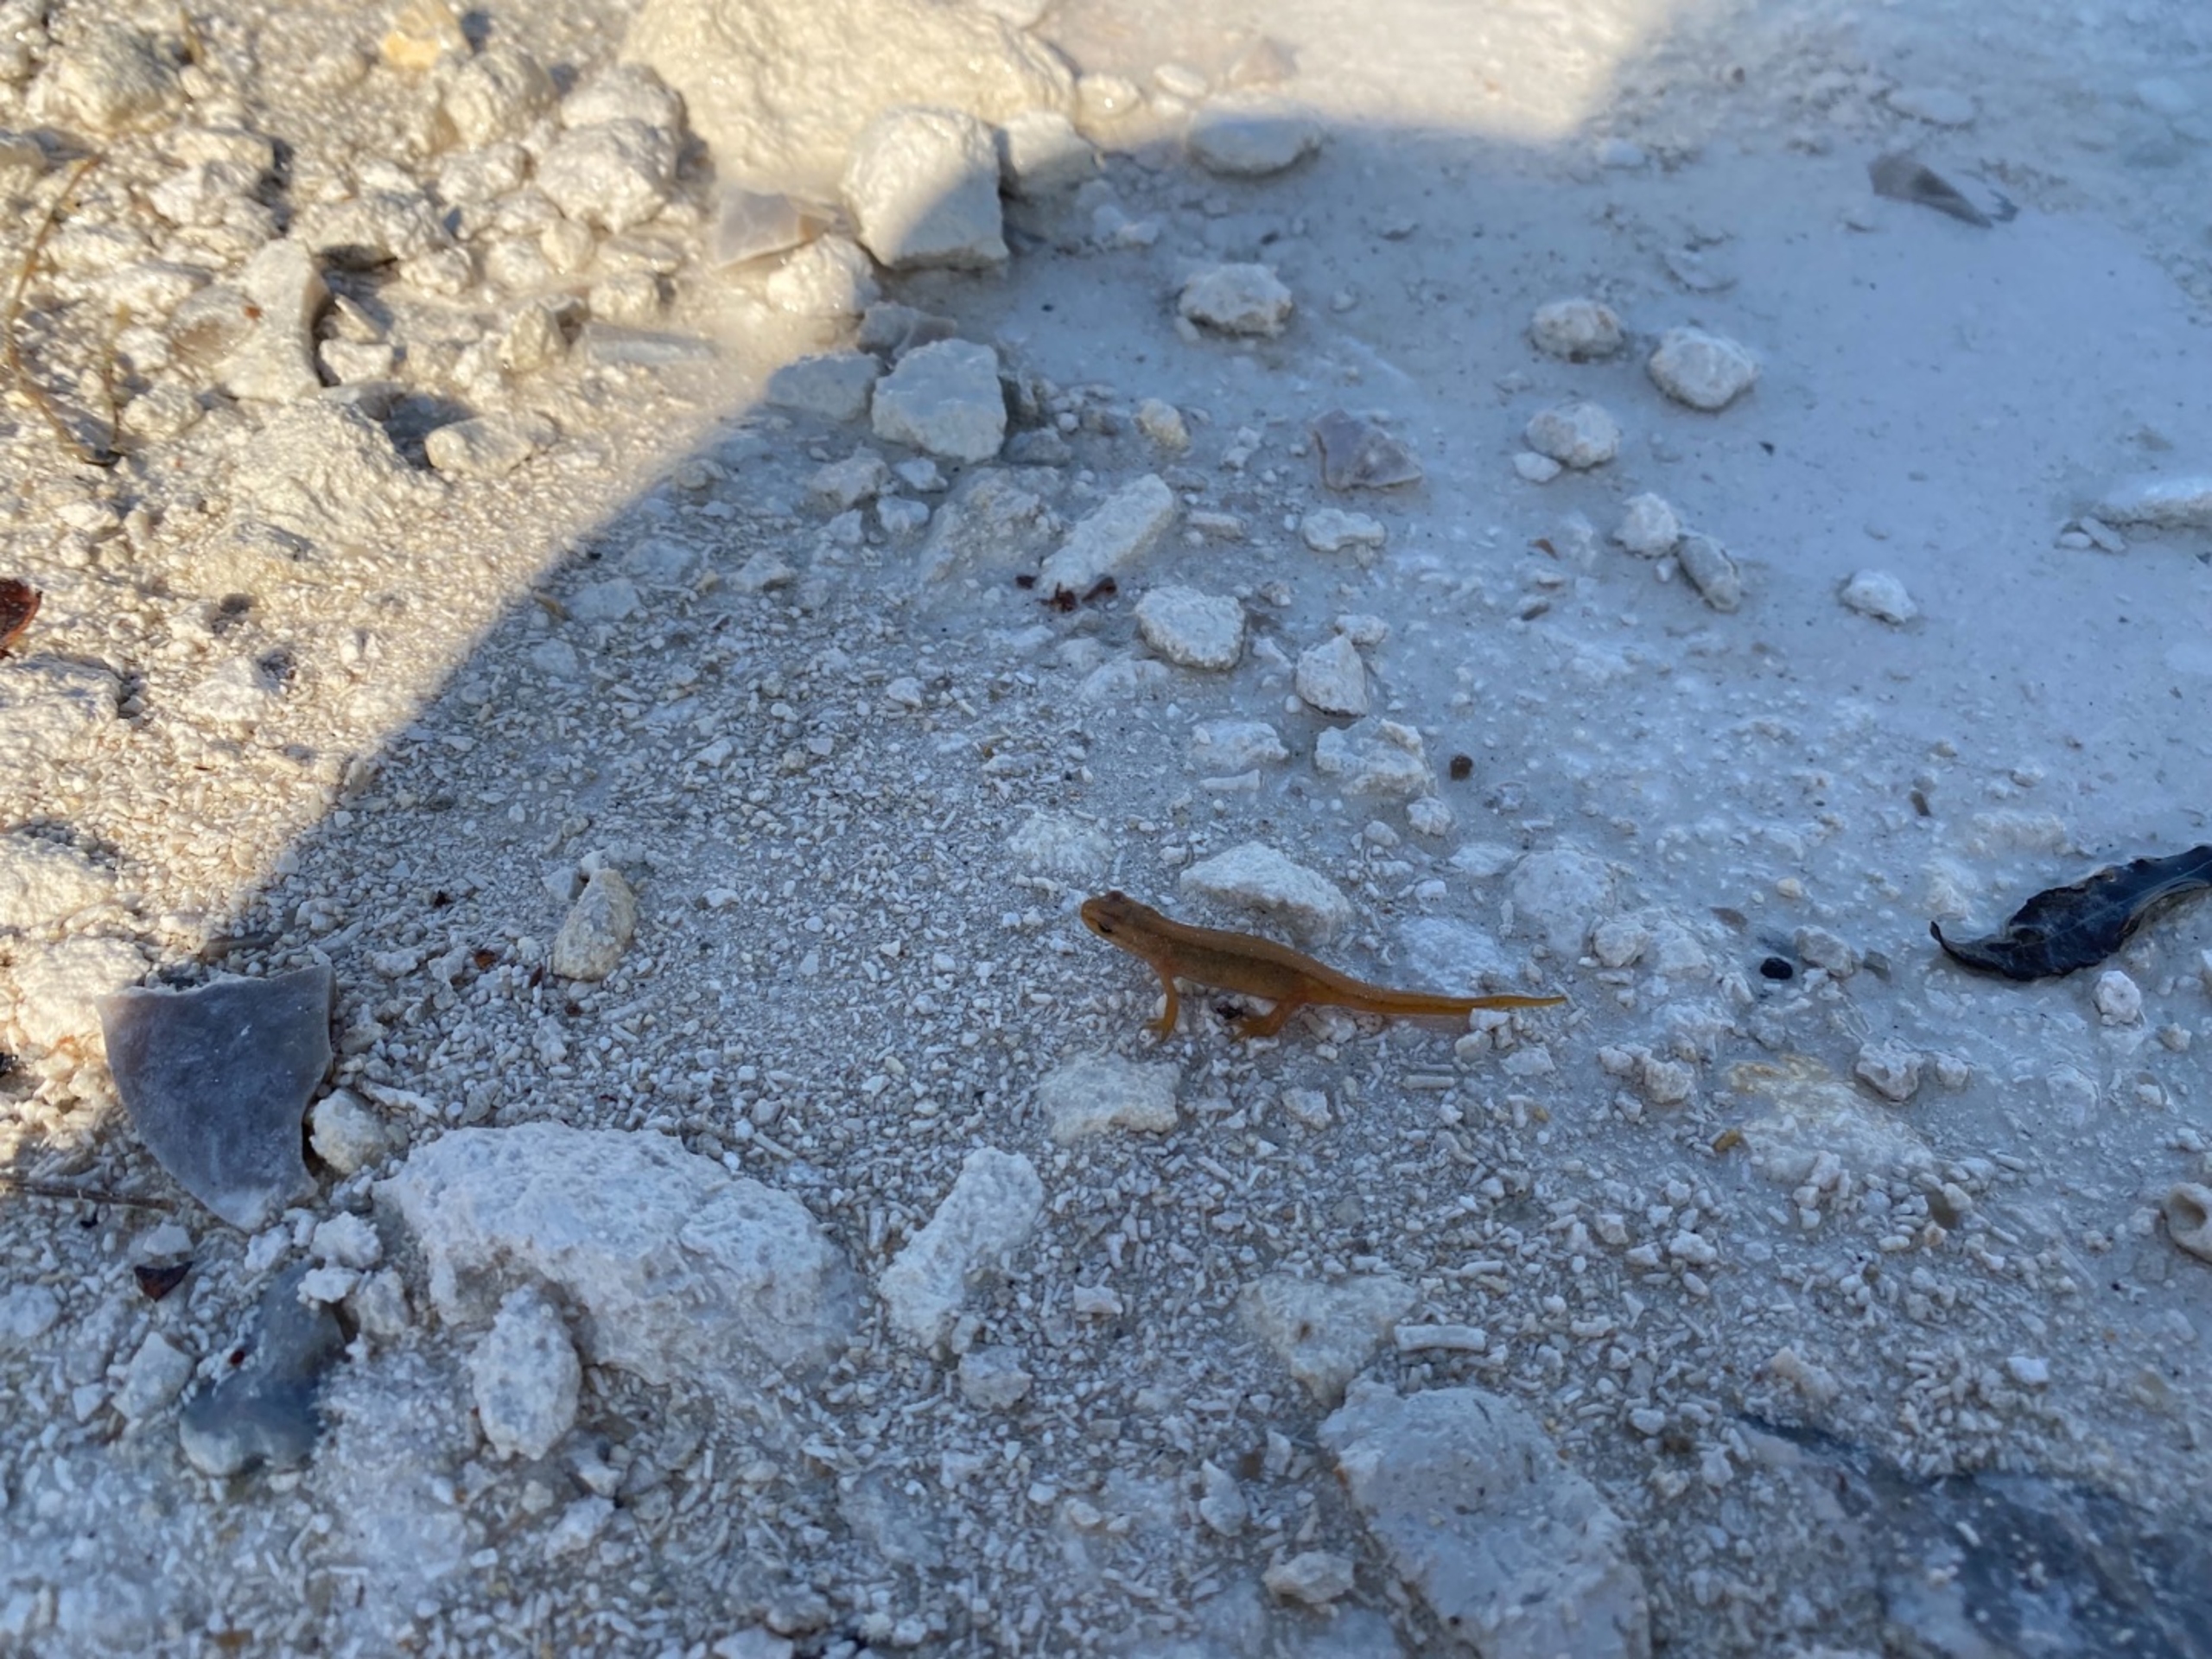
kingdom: Animalia
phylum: Chordata
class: Amphibia
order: Caudata
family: Salamandridae
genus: Lissotriton
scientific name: Lissotriton vulgaris
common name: Lille vandsalamander
